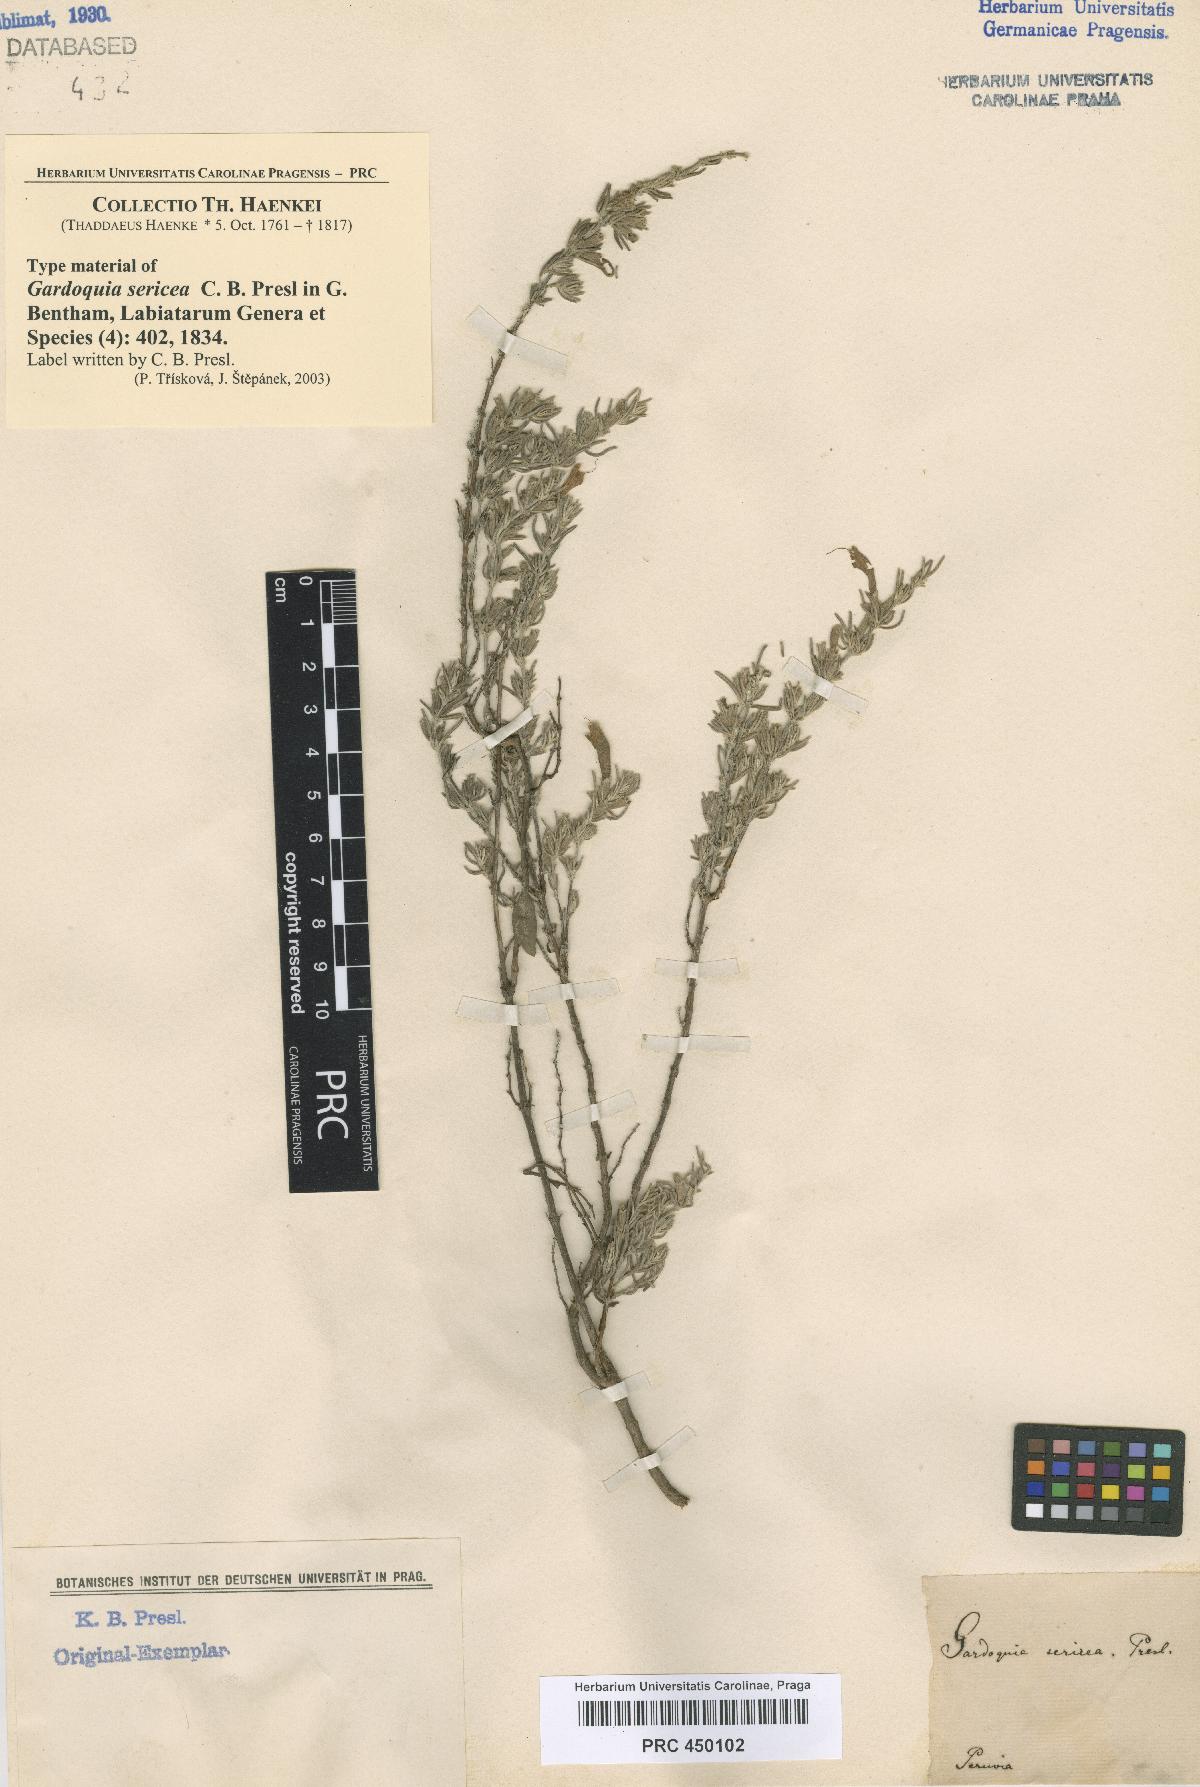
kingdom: Plantae
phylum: Tracheophyta
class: Magnoliopsida
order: Lamiales
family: Lamiaceae
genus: Clinopodium
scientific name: Clinopodium sericeum
